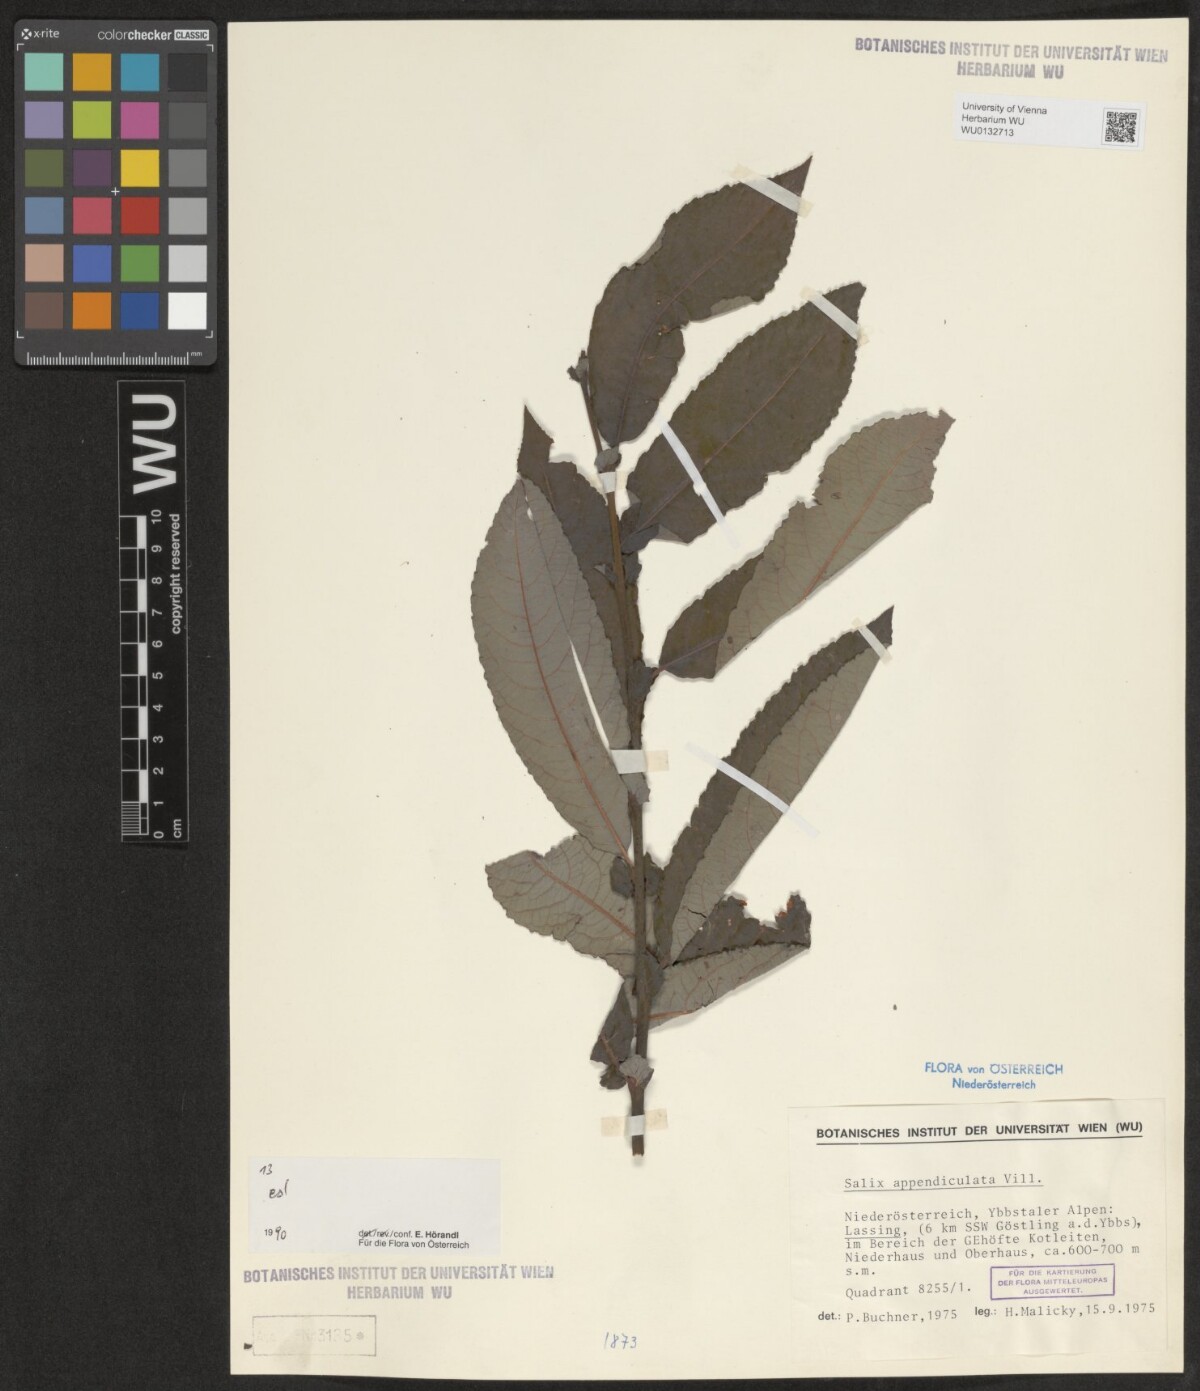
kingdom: Plantae
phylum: Tracheophyta
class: Magnoliopsida
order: Malpighiales
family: Salicaceae
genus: Salix
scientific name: Salix appendiculata
